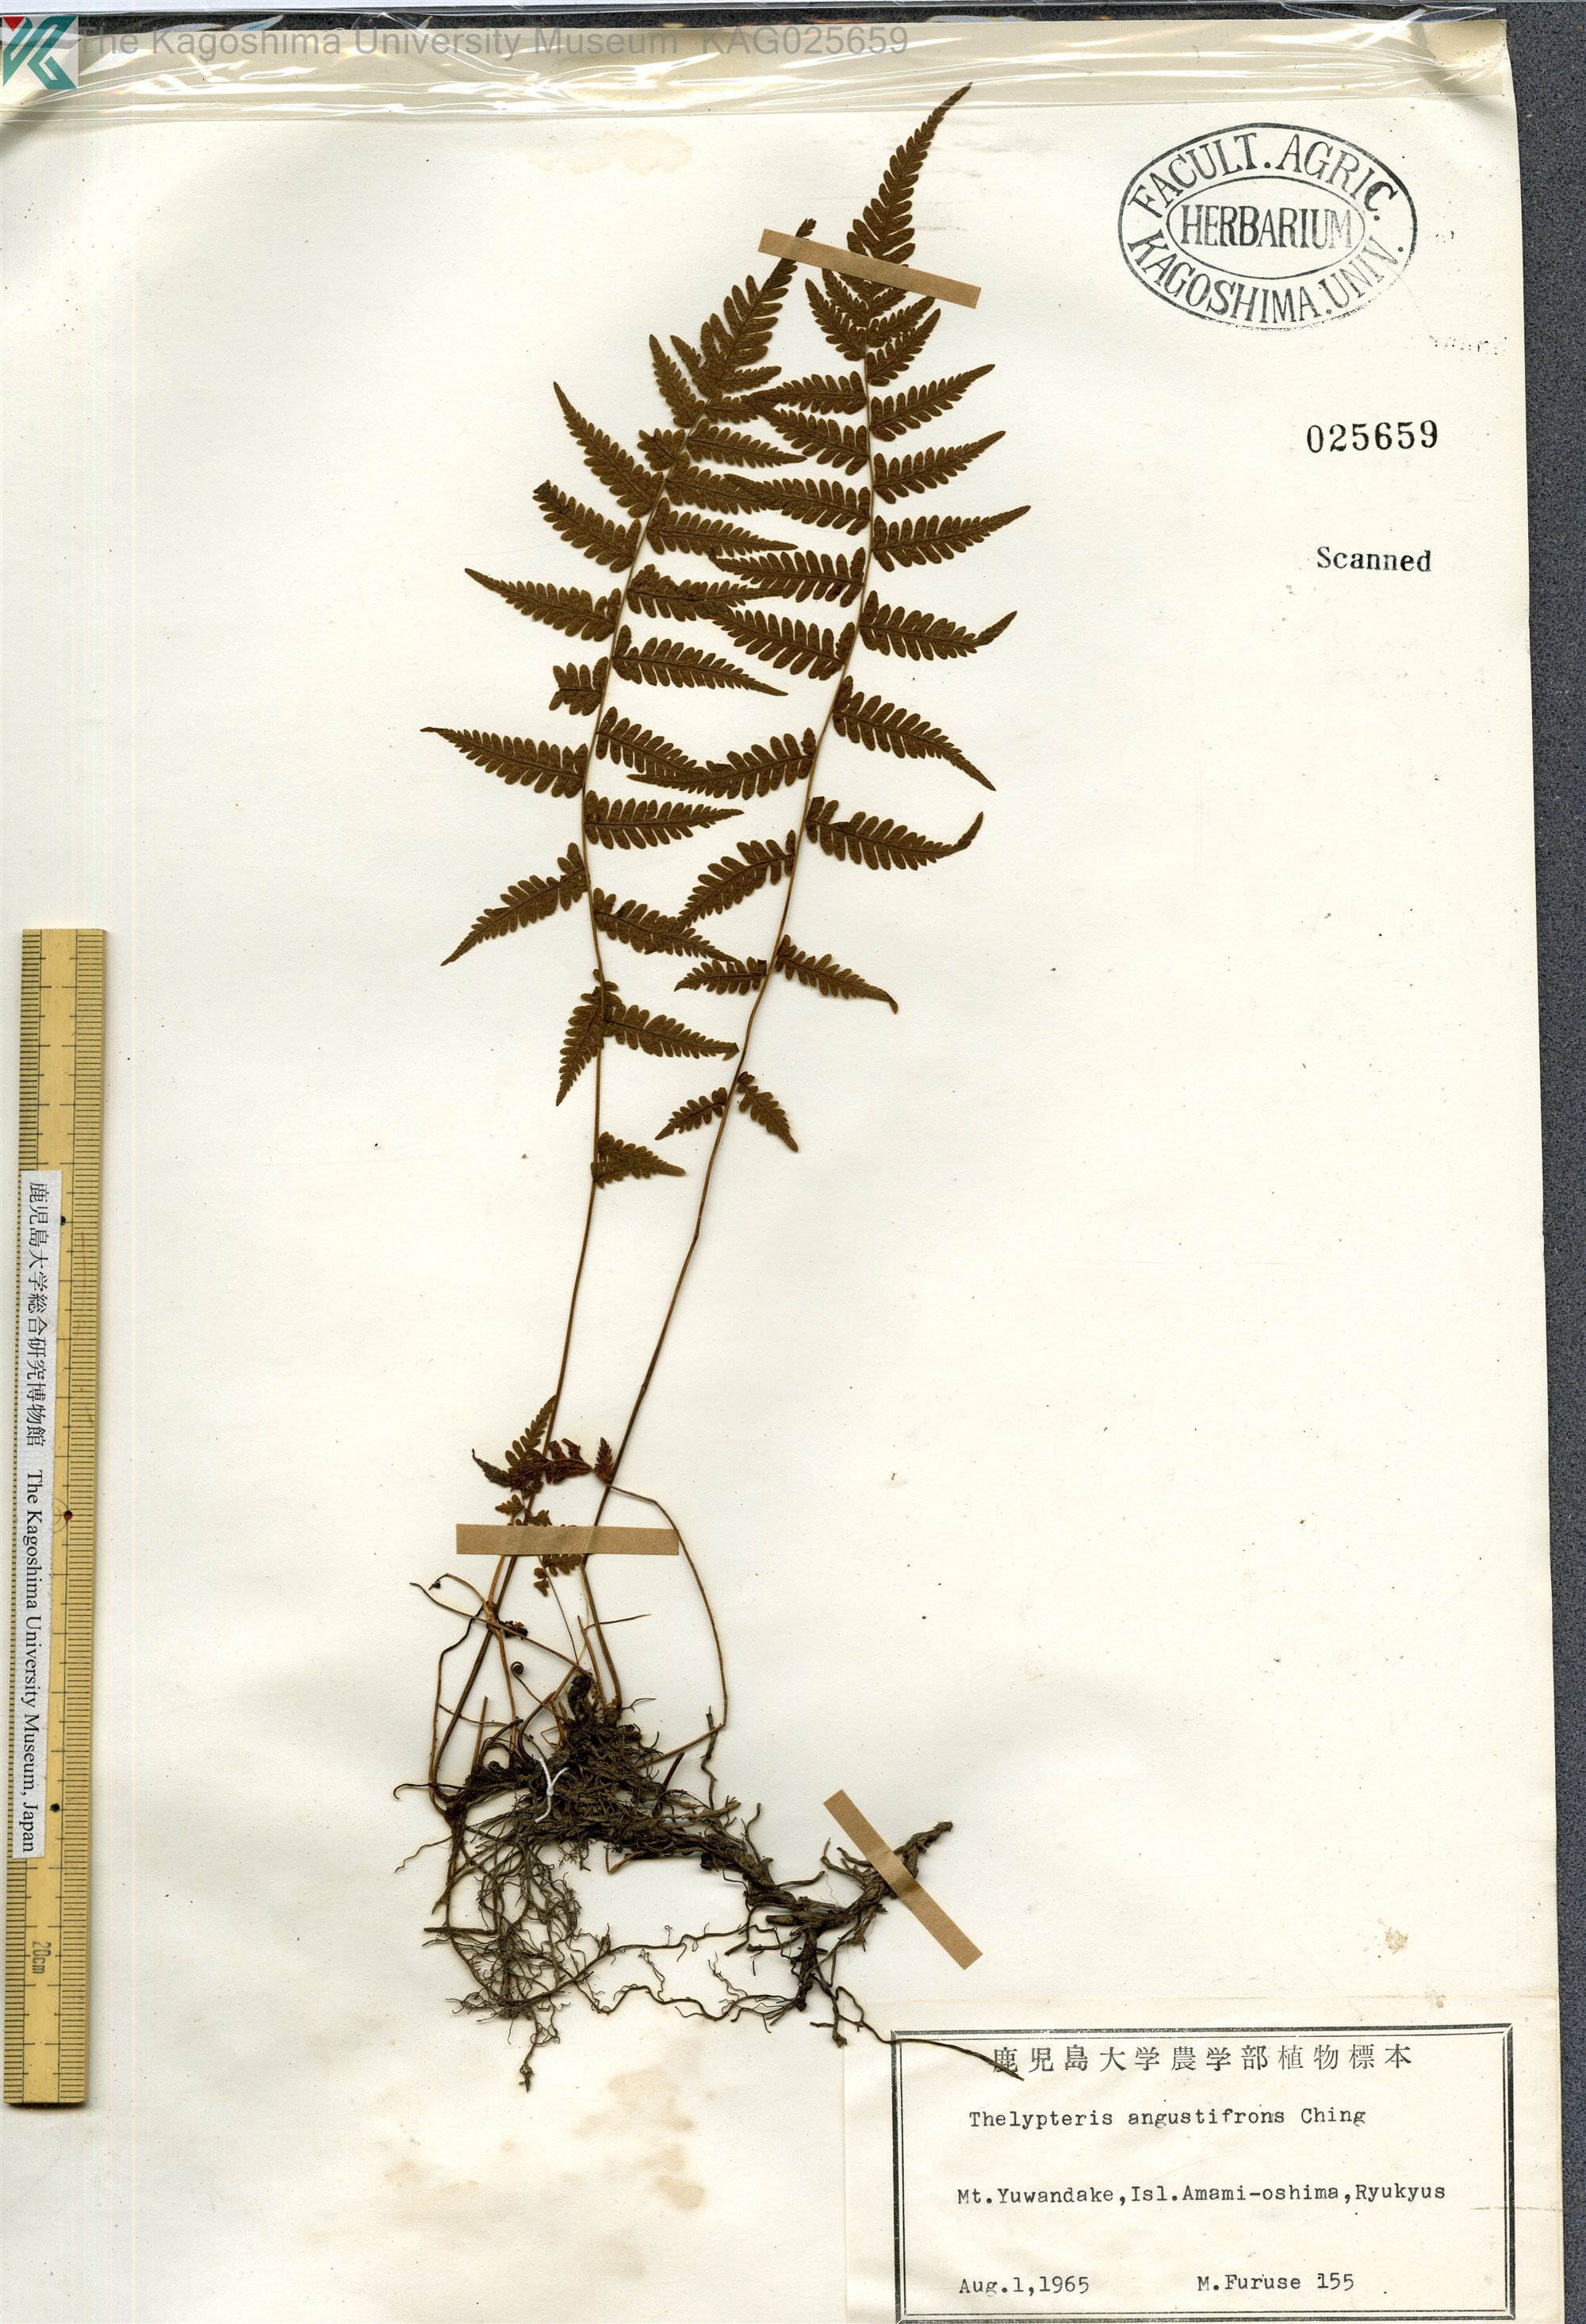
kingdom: Plantae
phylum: Tracheophyta
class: Polypodiopsida
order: Polypodiales
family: Thelypteridaceae
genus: Amauropelta
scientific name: Amauropelta angustifrons
